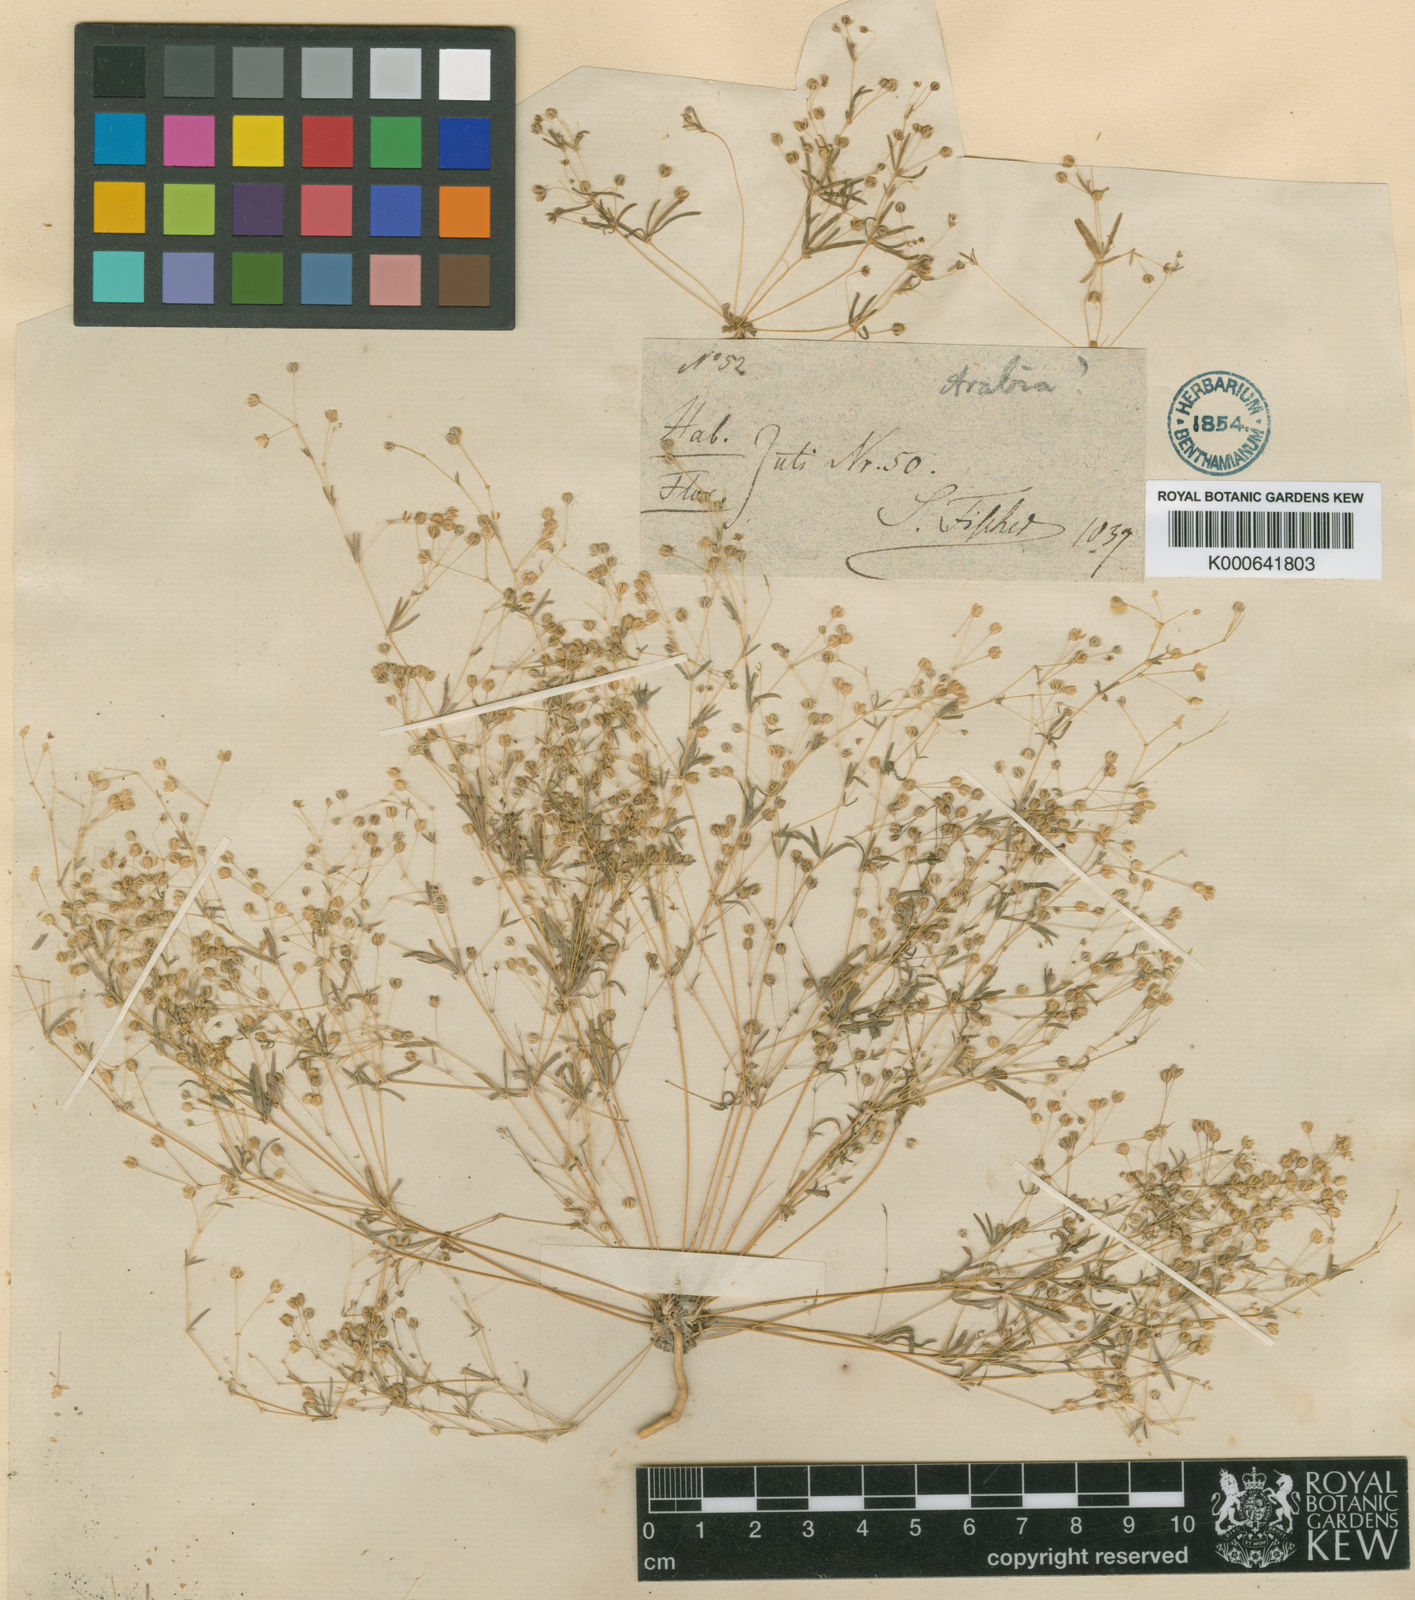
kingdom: Plantae
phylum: Tracheophyta
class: Magnoliopsida
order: Caryophyllales
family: Molluginaceae
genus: Hypertelis
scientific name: Hypertelis cerviana
